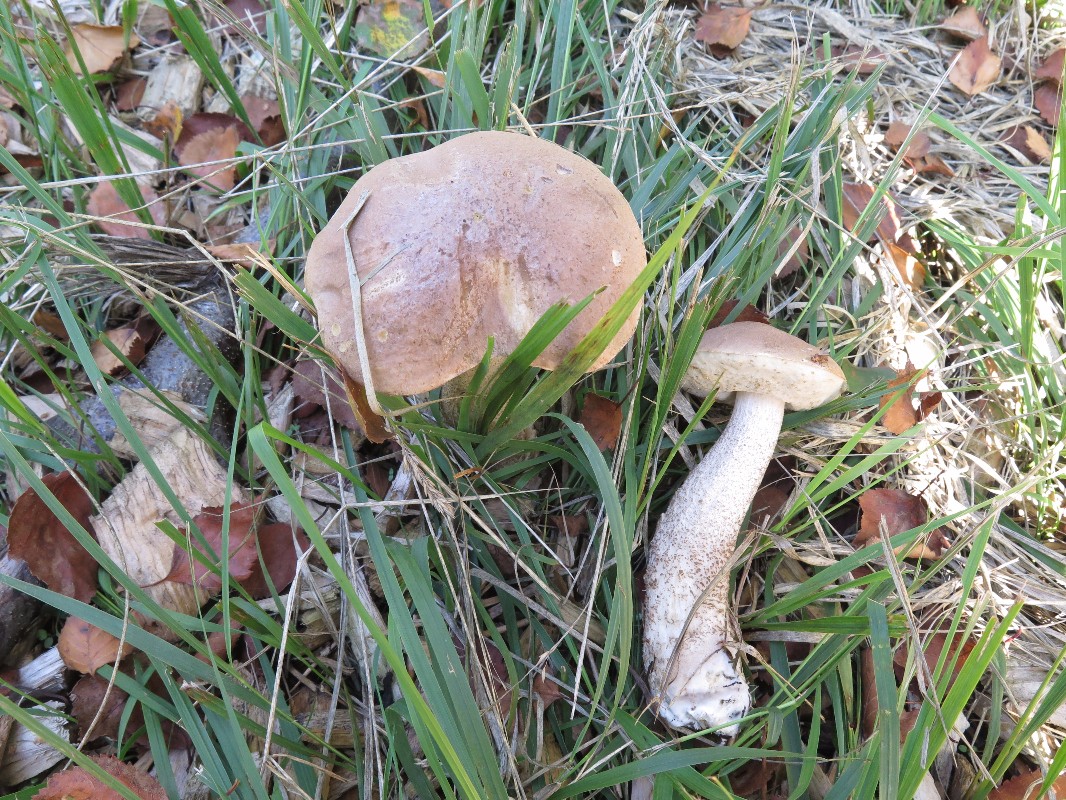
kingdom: Fungi
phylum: Basidiomycota
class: Agaricomycetes
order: Boletales
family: Boletaceae
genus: Leccinum
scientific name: Leccinum versipelle
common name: orange skælrørhat
